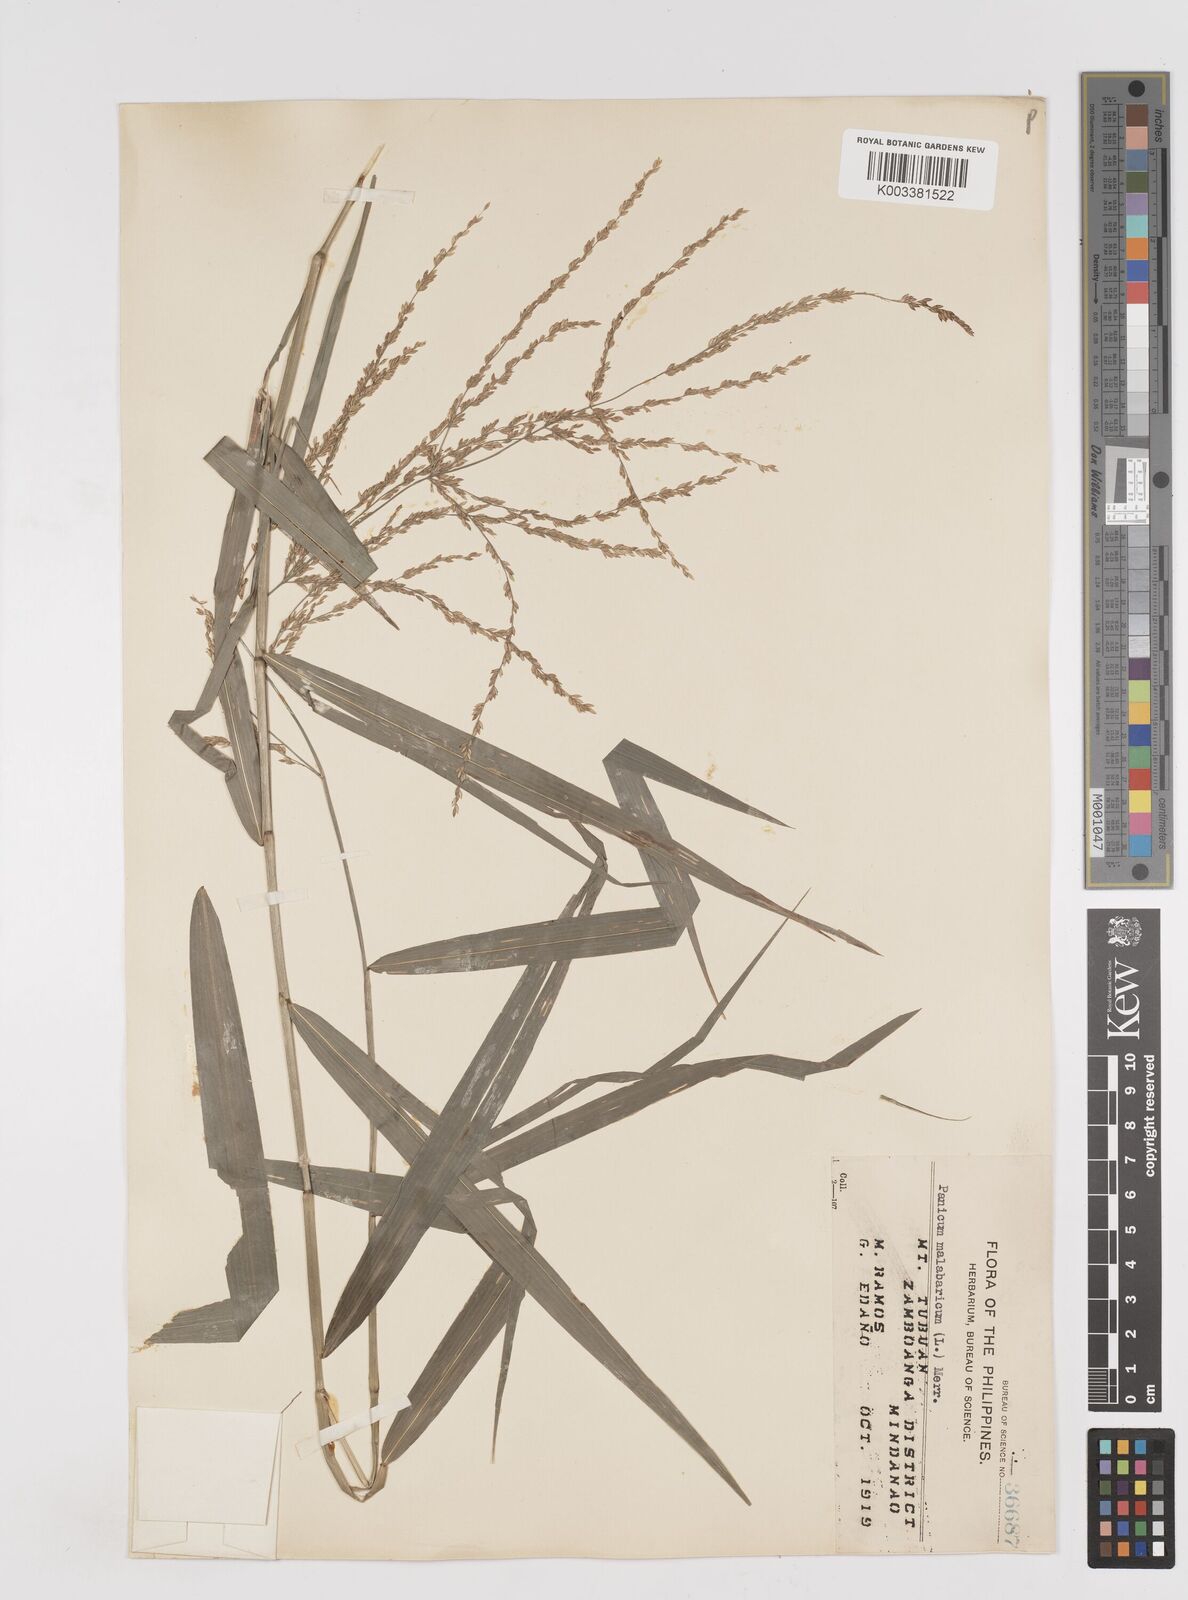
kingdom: Plantae
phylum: Tracheophyta
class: Liliopsida
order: Poales
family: Poaceae
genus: Ottochloa
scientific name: Ottochloa nodosa
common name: Slender-panic grass
